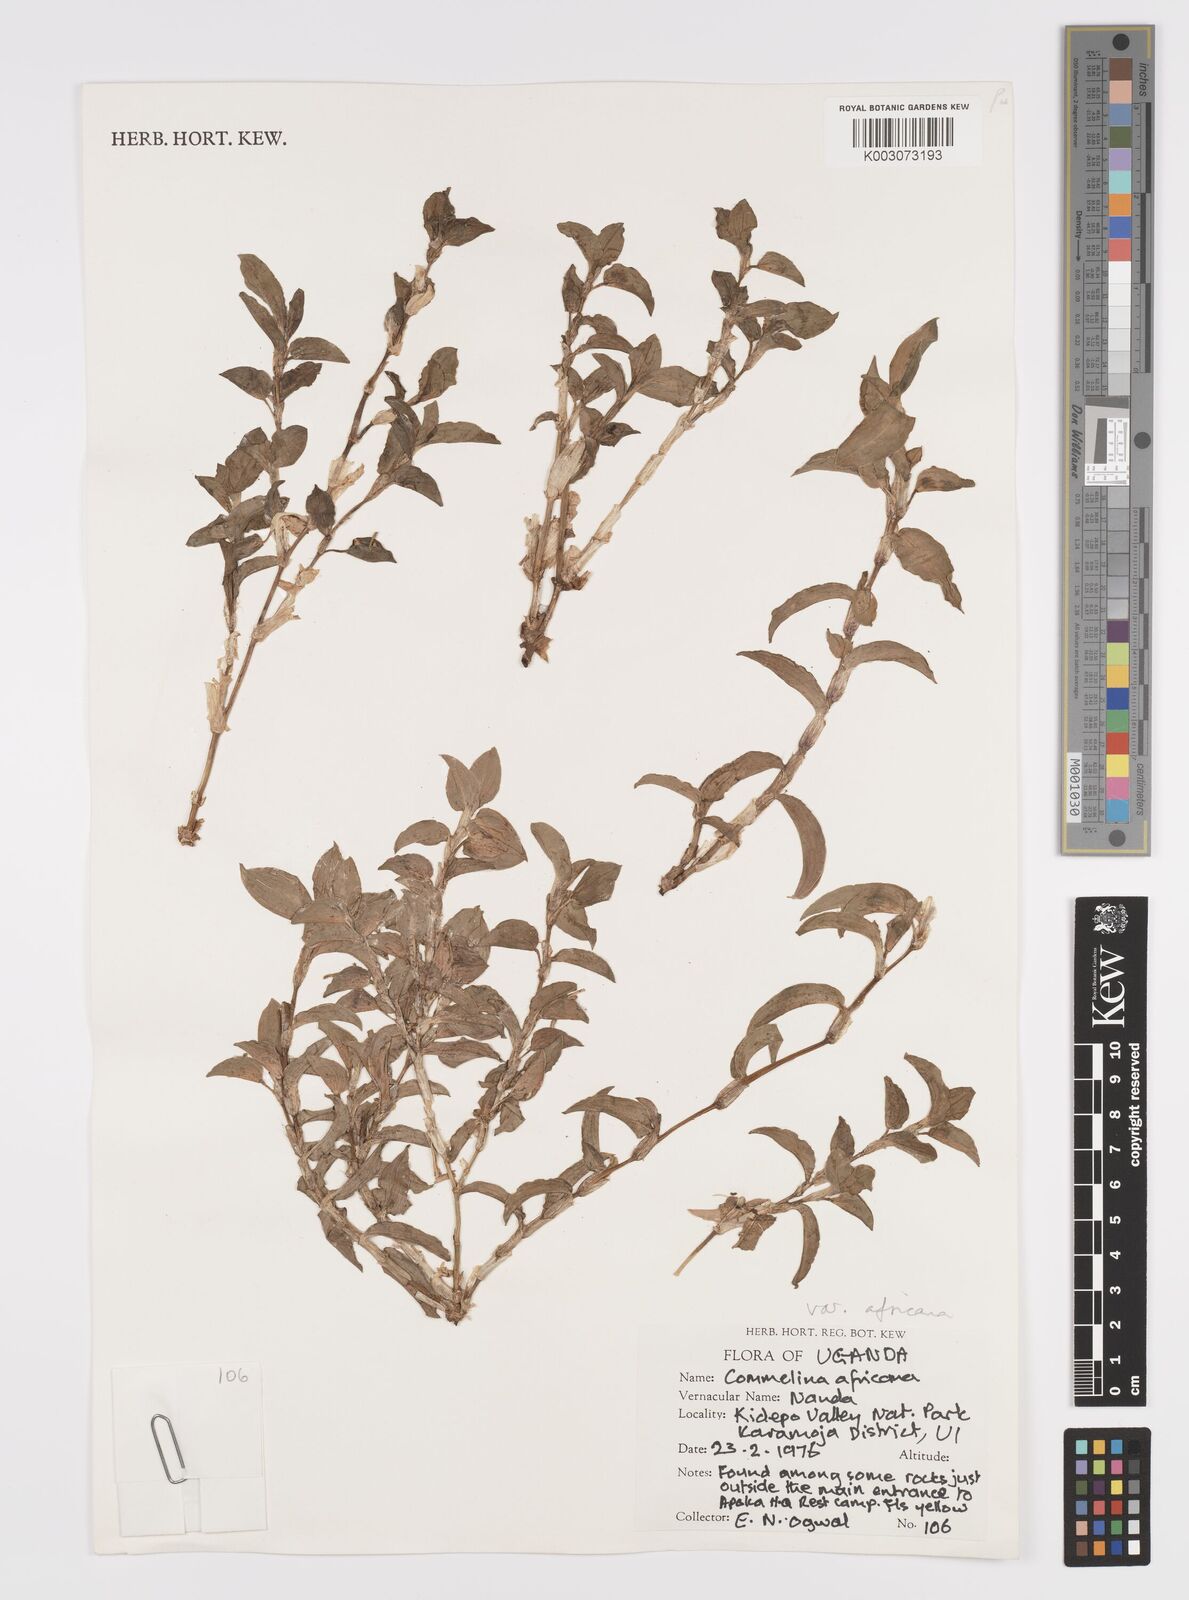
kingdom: Plantae
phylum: Tracheophyta
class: Liliopsida
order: Commelinales
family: Commelinaceae
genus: Commelina
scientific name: Commelina africana
